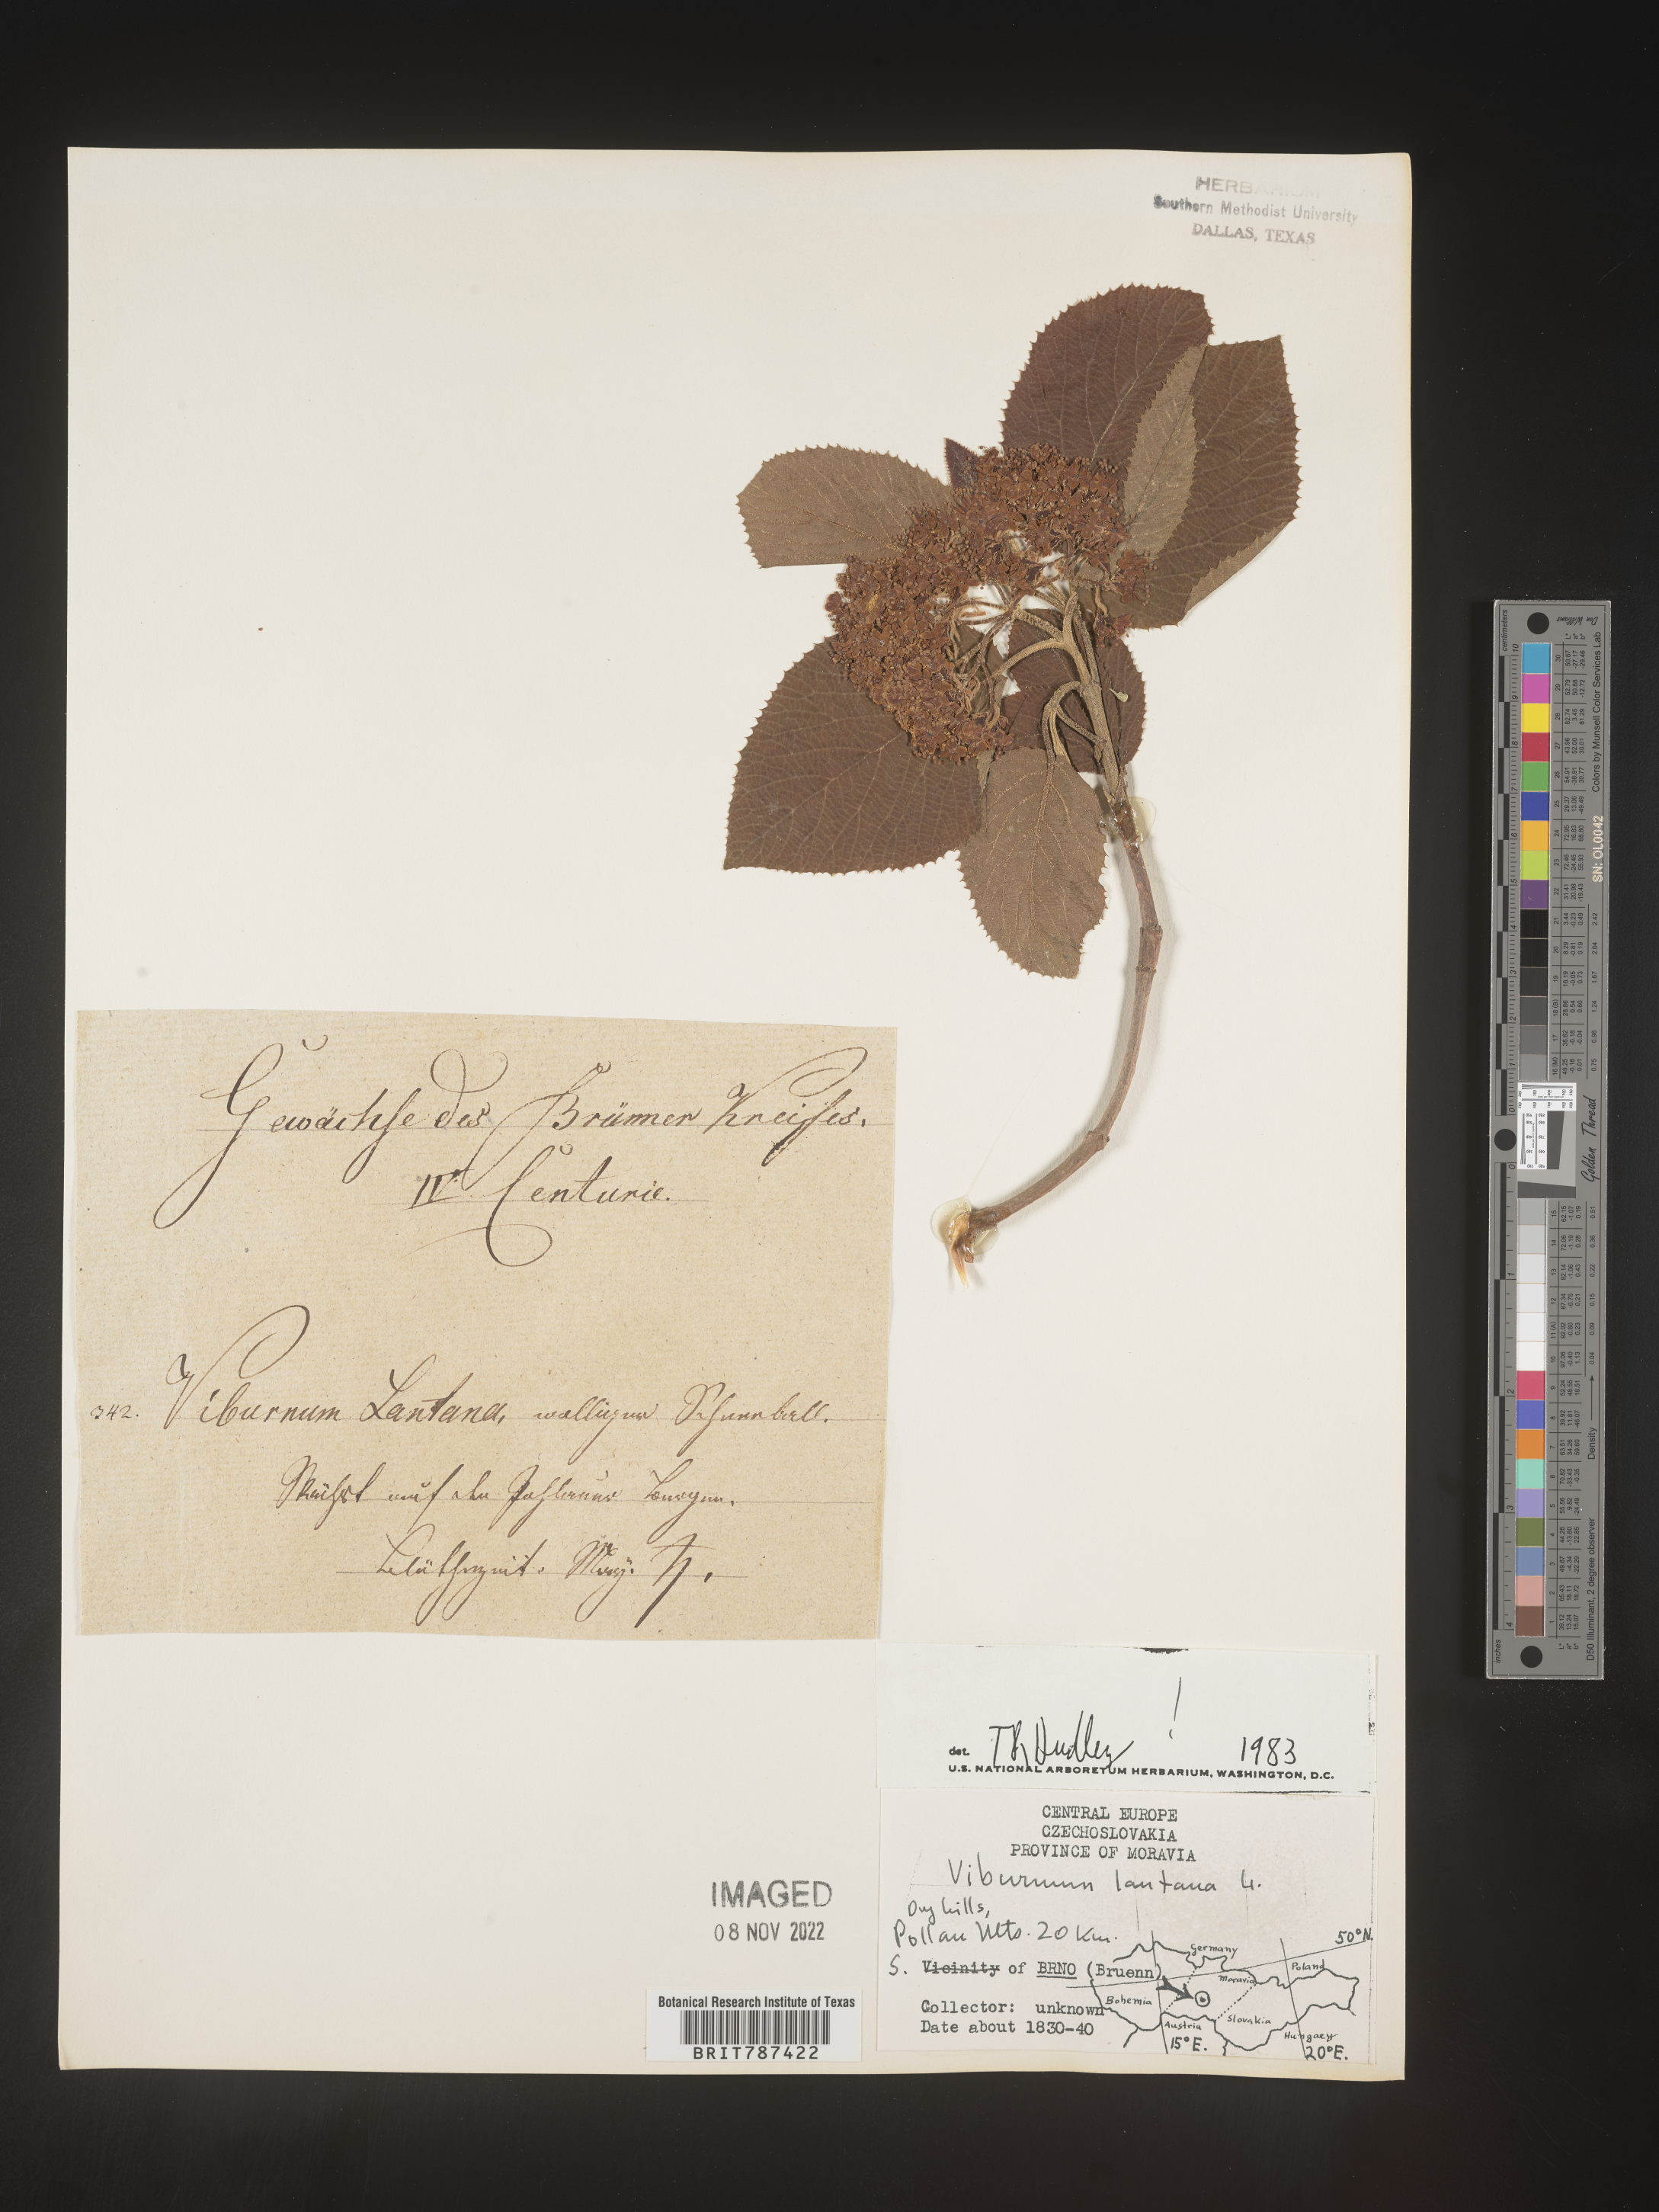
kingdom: Plantae
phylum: Tracheophyta
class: Magnoliopsida
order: Dipsacales
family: Viburnaceae
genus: Viburnum
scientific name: Viburnum
